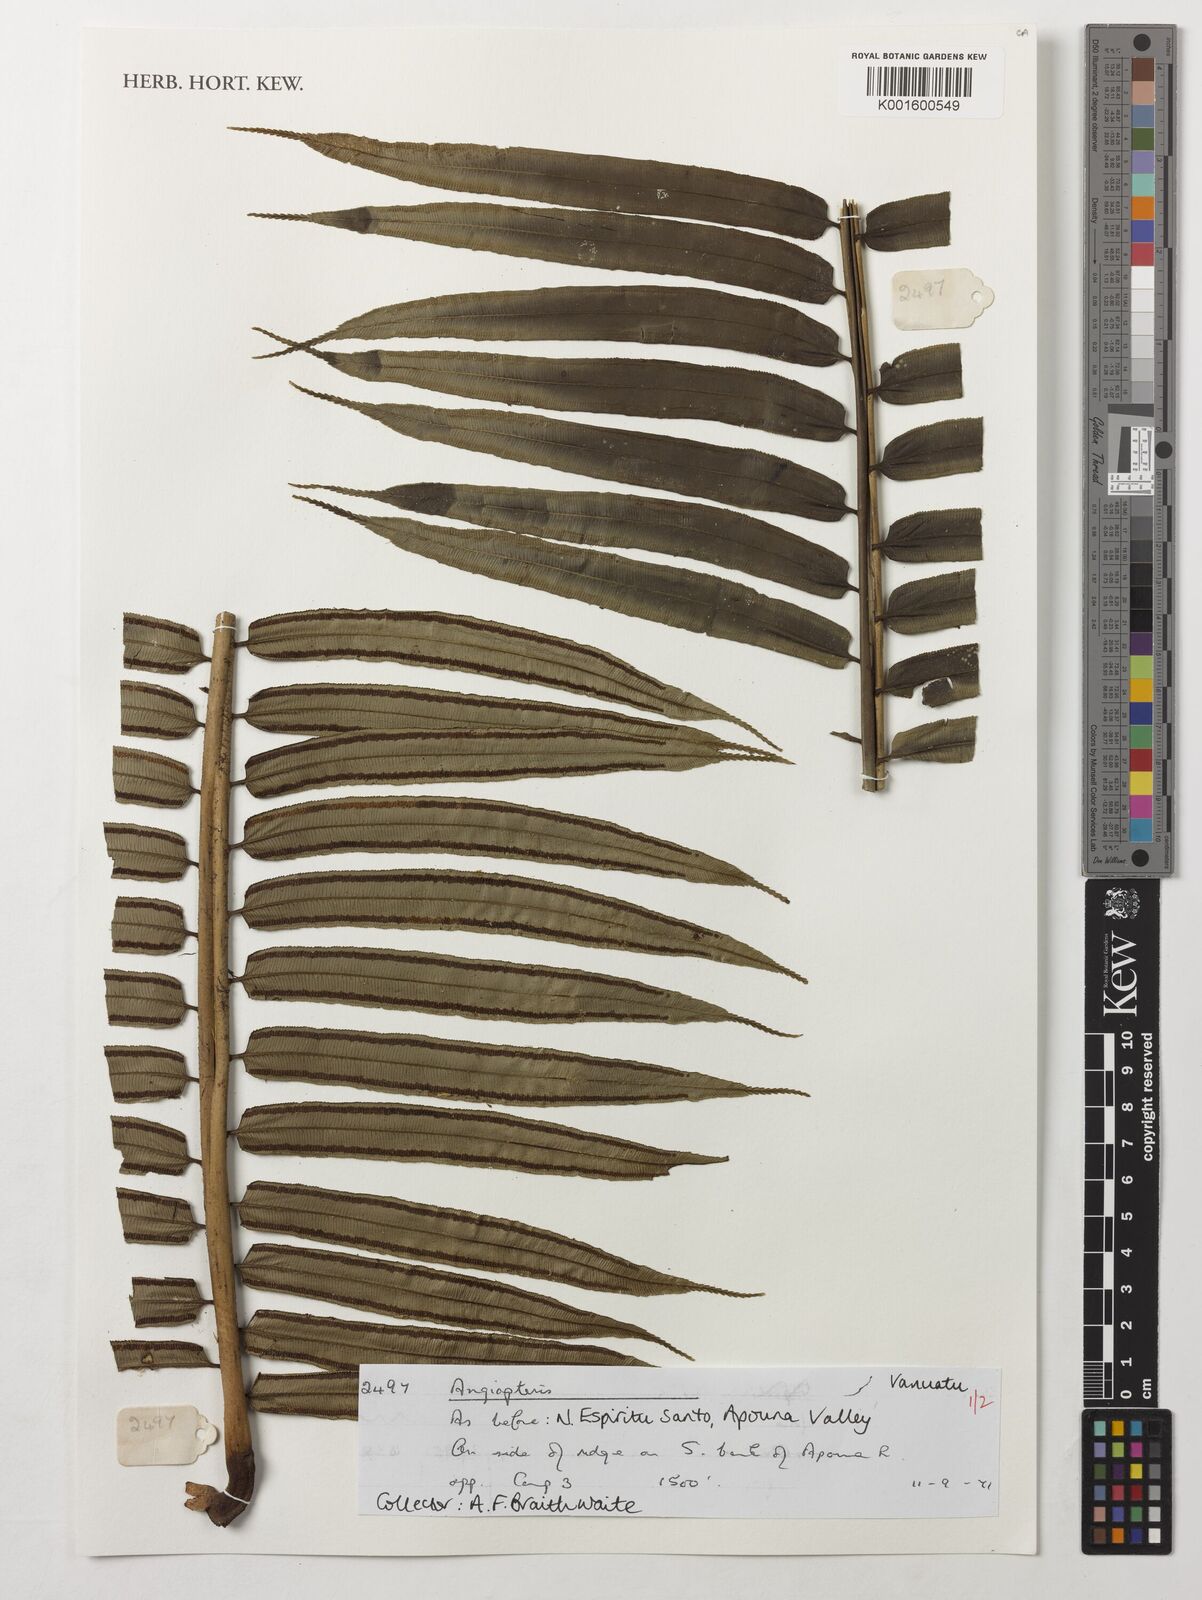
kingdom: Plantae
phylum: Tracheophyta
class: Polypodiopsida
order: Marattiales
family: Marattiaceae
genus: Angiopteris
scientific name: Angiopteris
